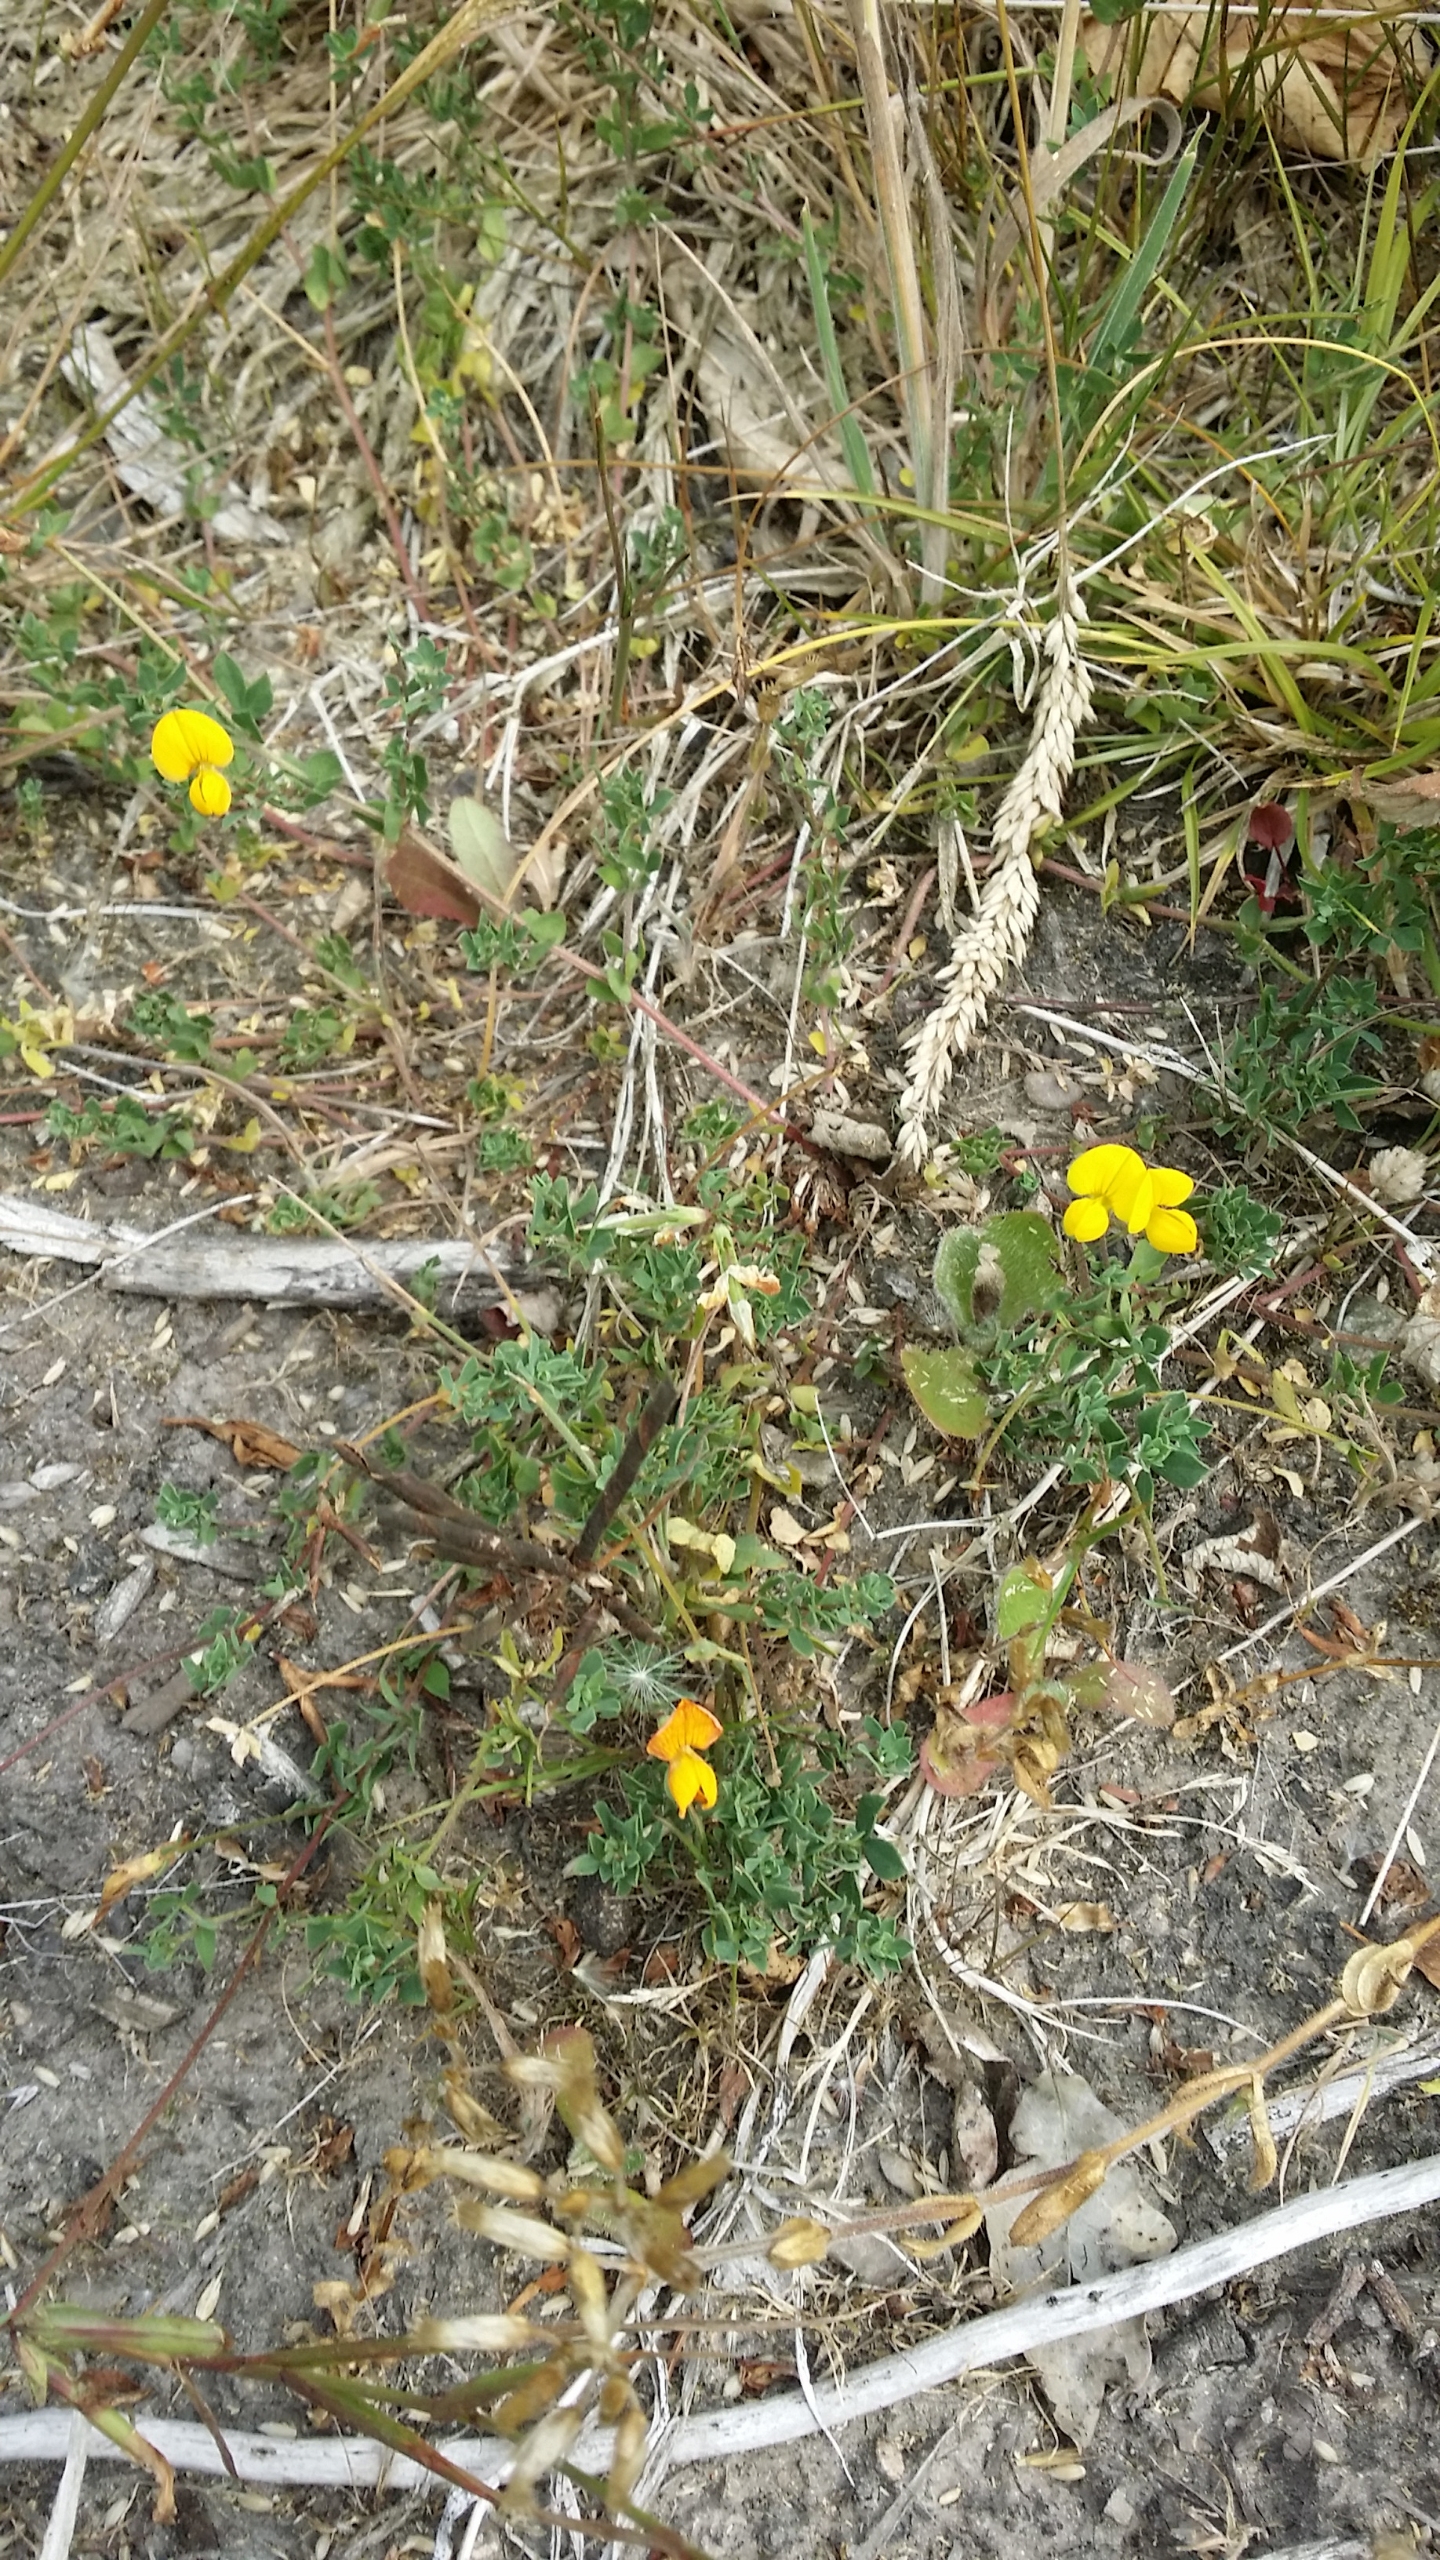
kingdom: Plantae
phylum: Tracheophyta
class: Magnoliopsida
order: Fabales
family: Fabaceae
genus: Lotus
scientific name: Lotus corniculatus
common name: Almindelig kællingetand
